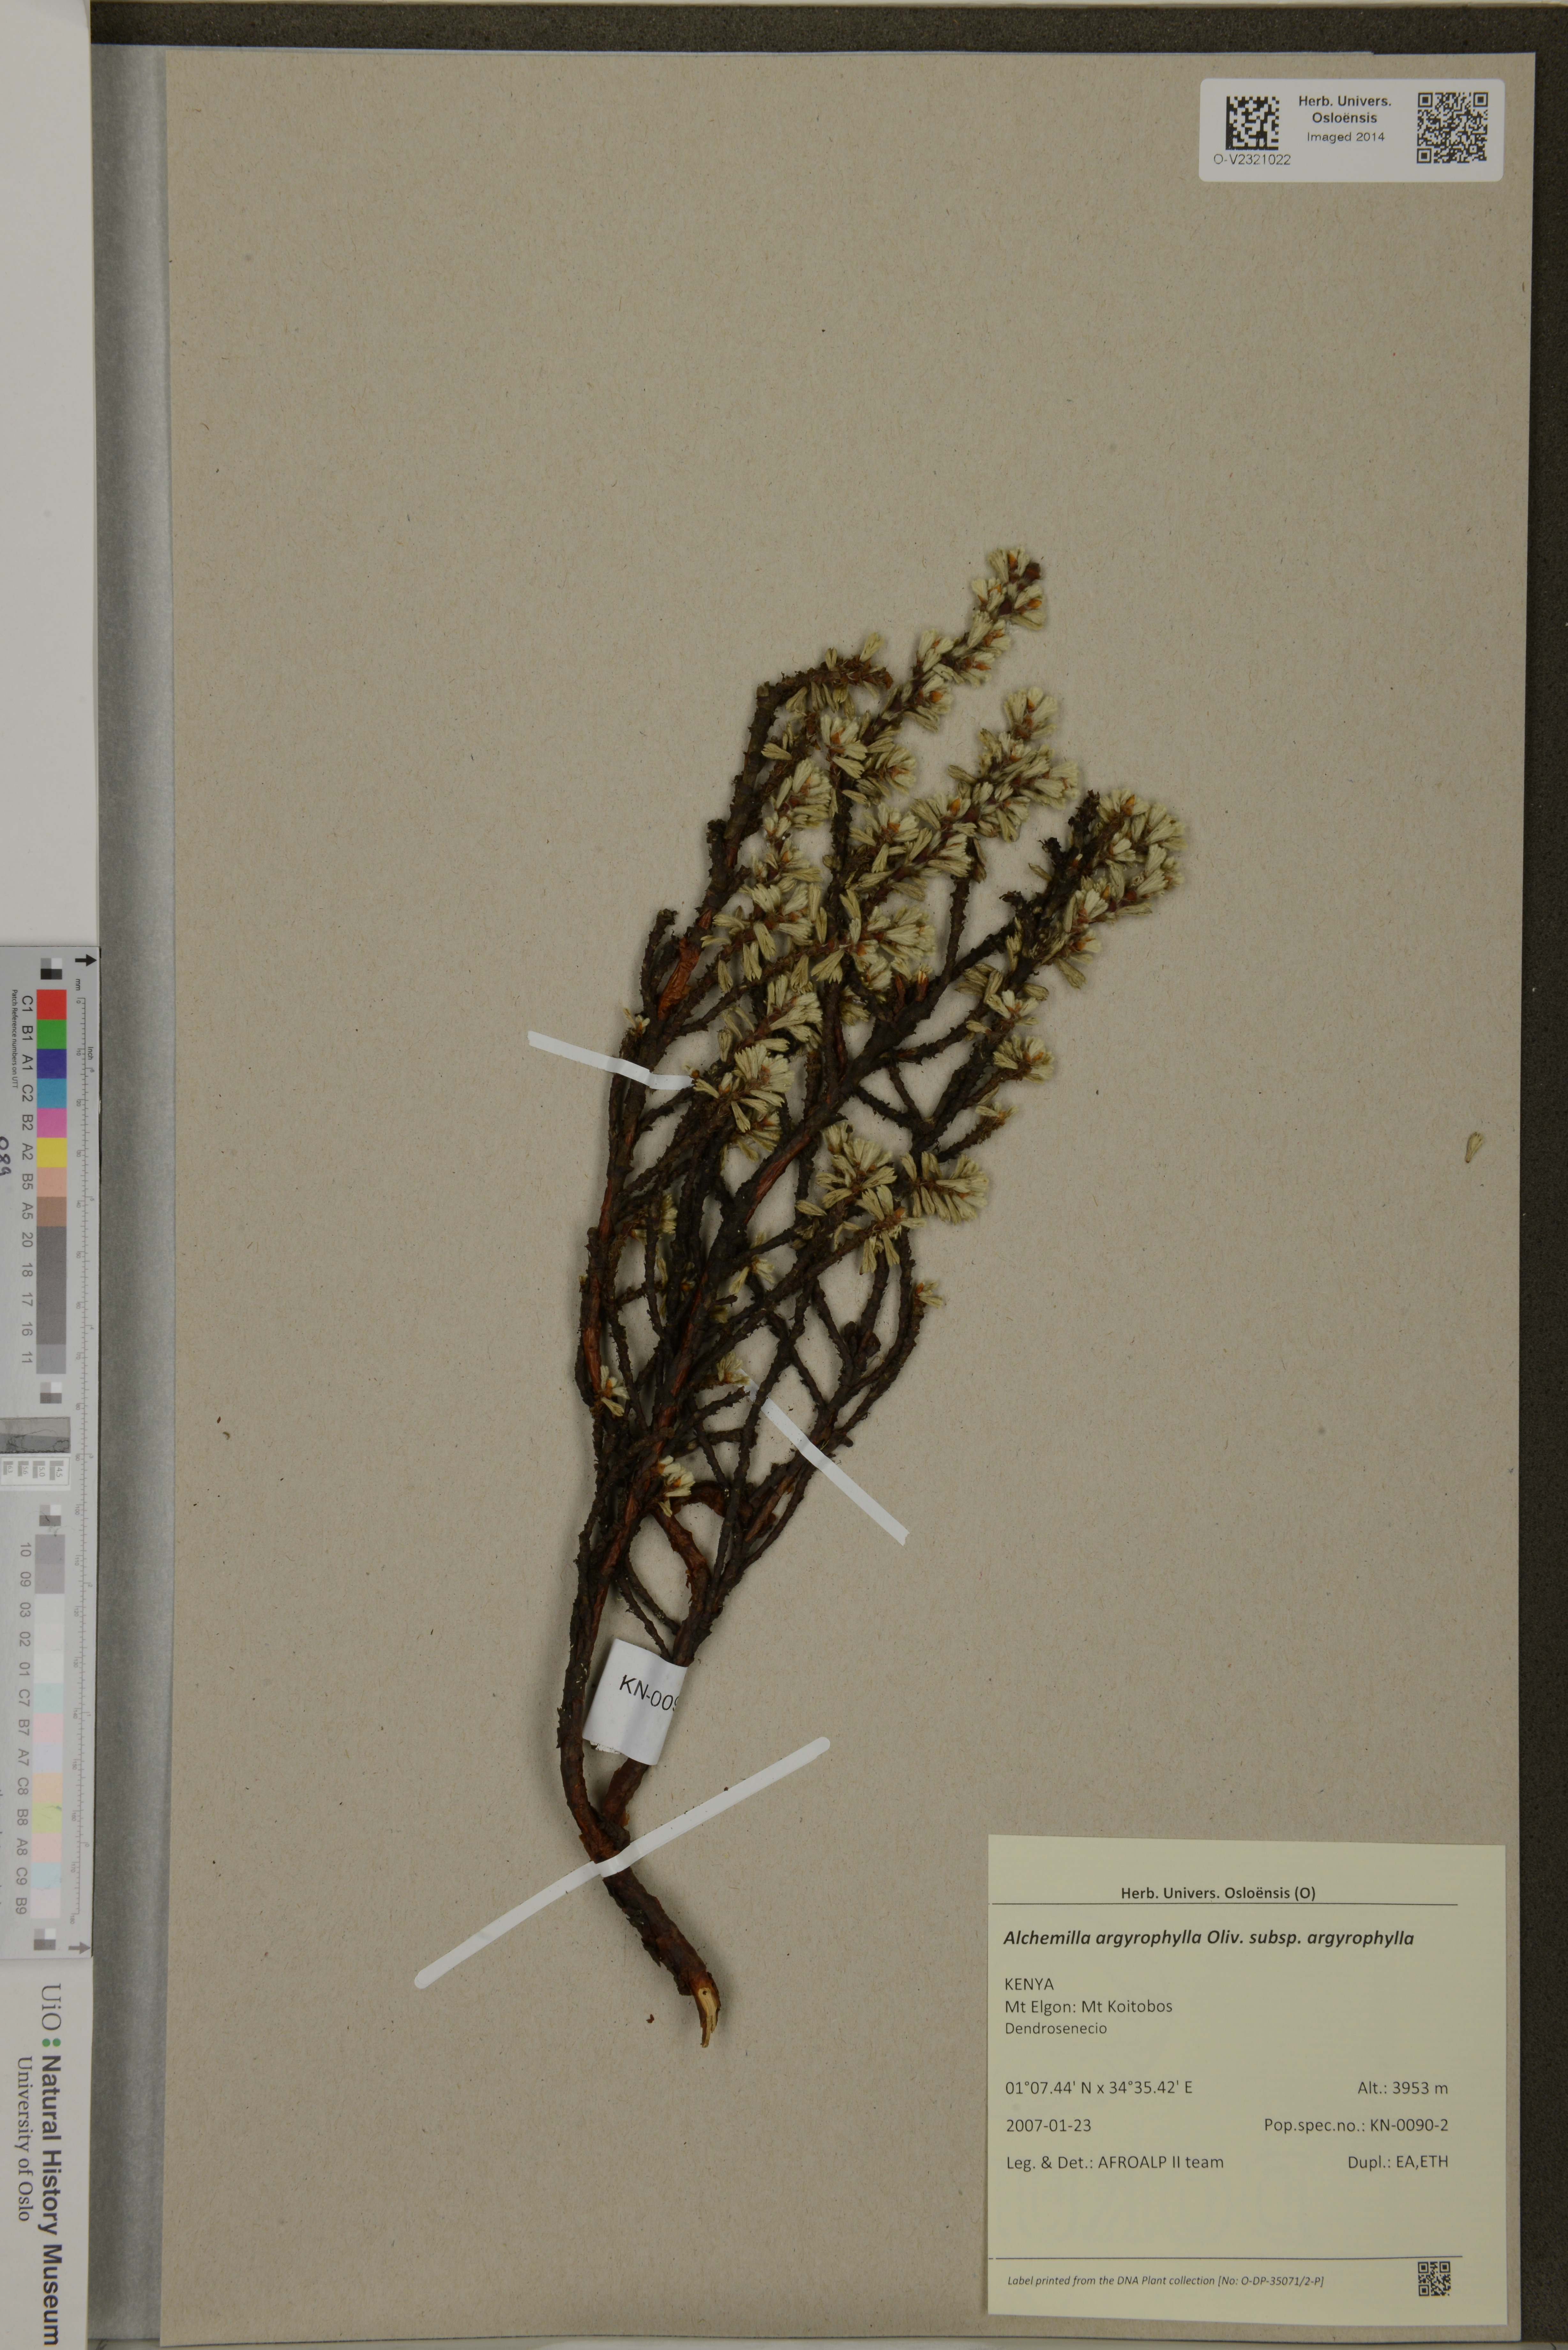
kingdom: Plantae
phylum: Tracheophyta
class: Magnoliopsida
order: Rosales
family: Rosaceae
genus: Alchemilla
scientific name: Alchemilla argyrophylla
